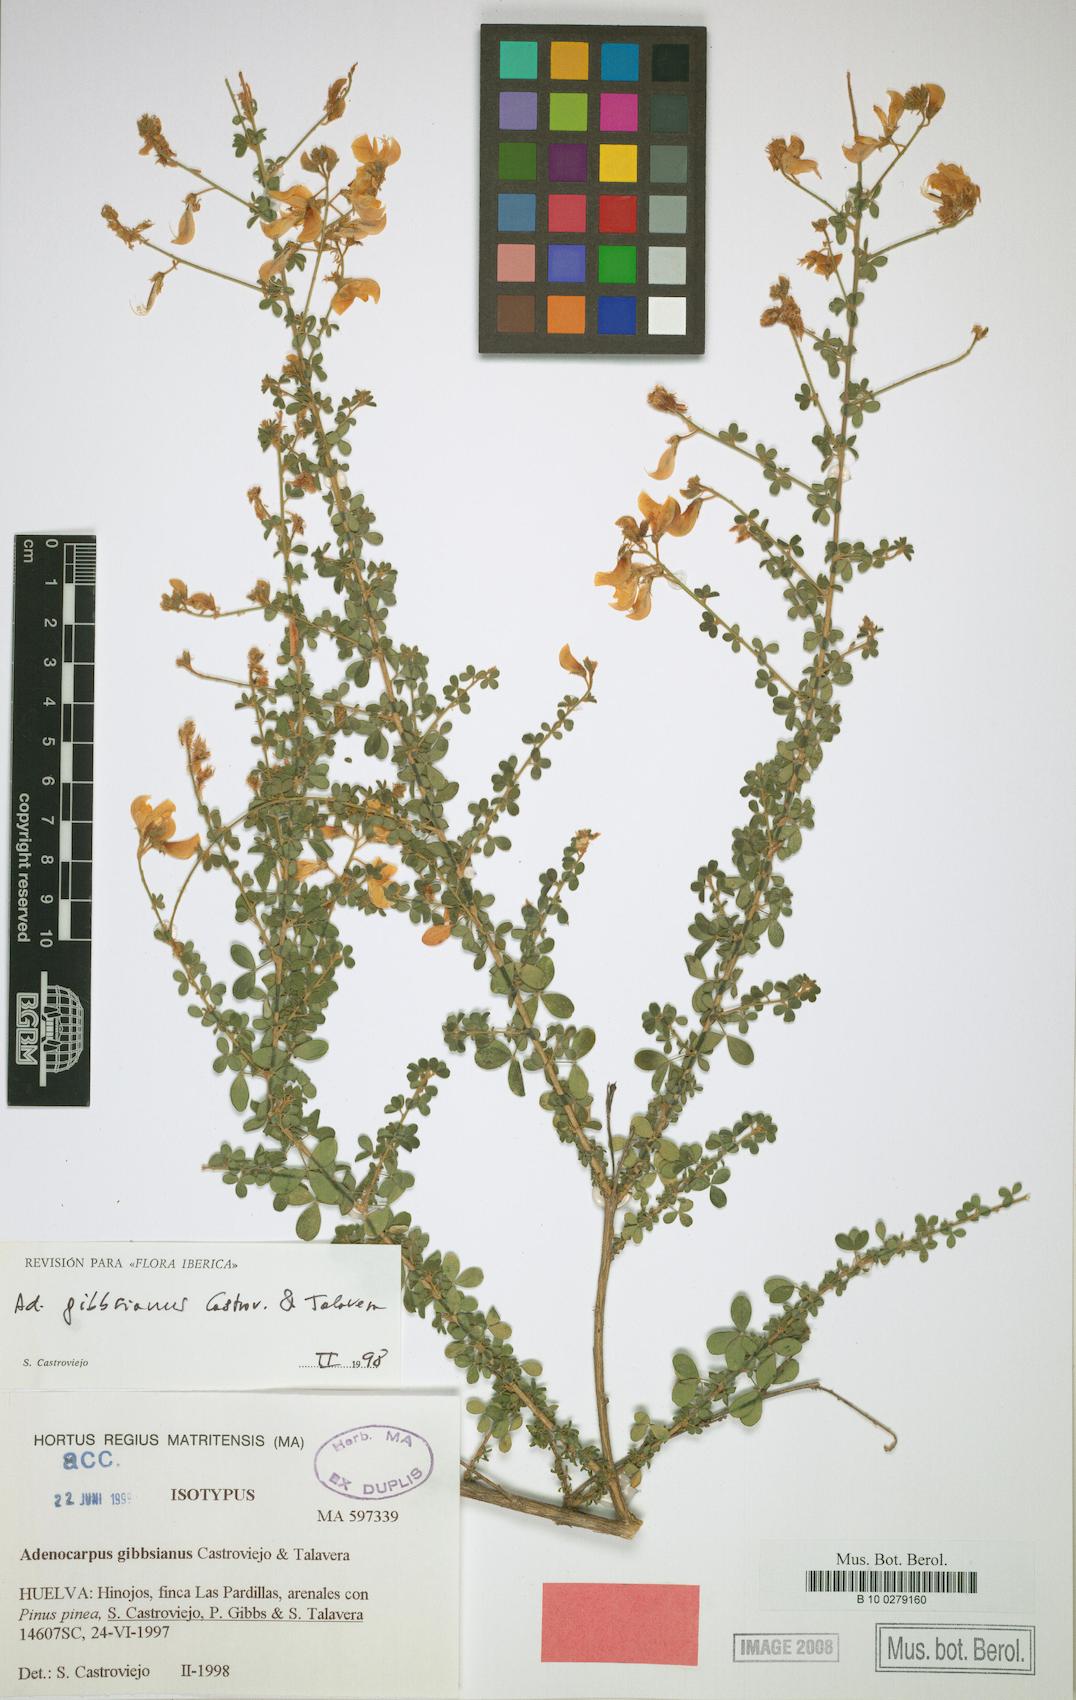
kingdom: Plantae
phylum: Tracheophyta
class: Magnoliopsida
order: Fabales
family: Fabaceae
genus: Adenocarpus
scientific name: Adenocarpus complicatus
